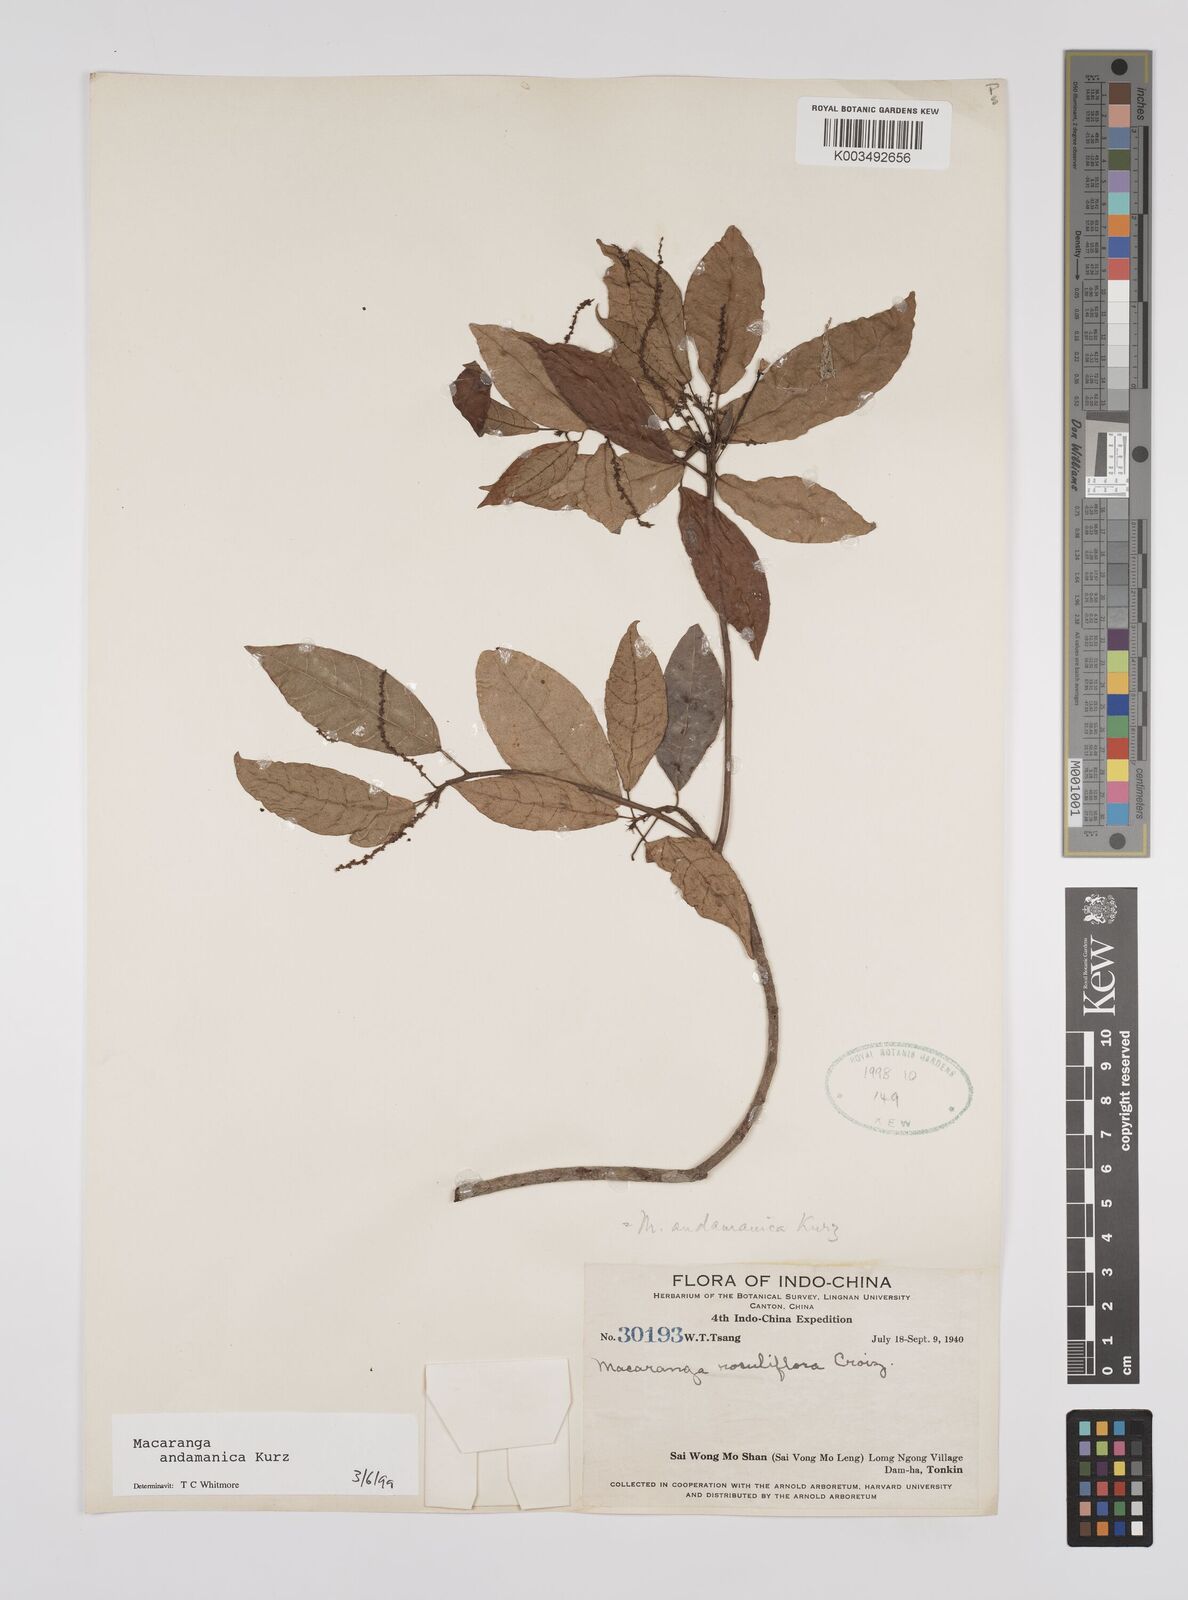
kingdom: Plantae
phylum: Tracheophyta
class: Magnoliopsida
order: Malpighiales
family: Euphorbiaceae
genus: Macaranga
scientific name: Macaranga andamanica
